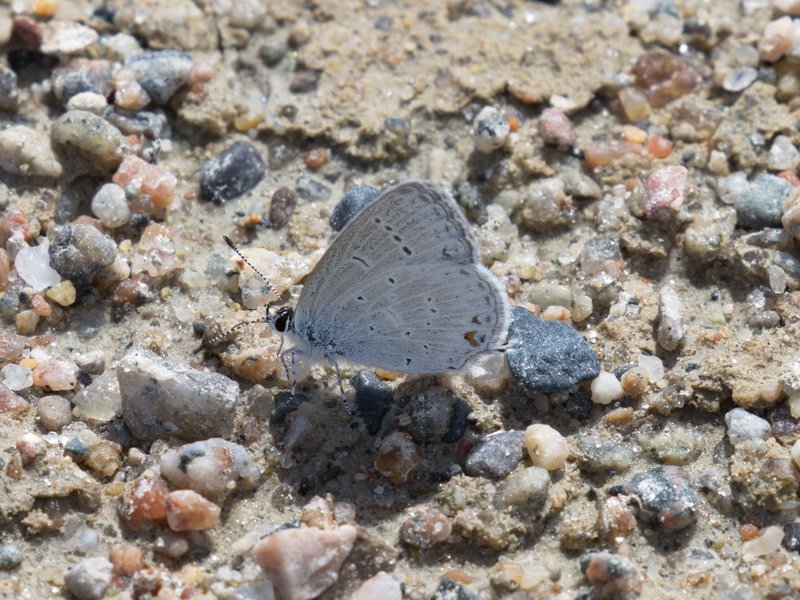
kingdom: Animalia
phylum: Arthropoda
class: Insecta
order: Lepidoptera
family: Lycaenidae
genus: Elkalyce
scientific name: Elkalyce amyntula
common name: Western Tailed-Blue
